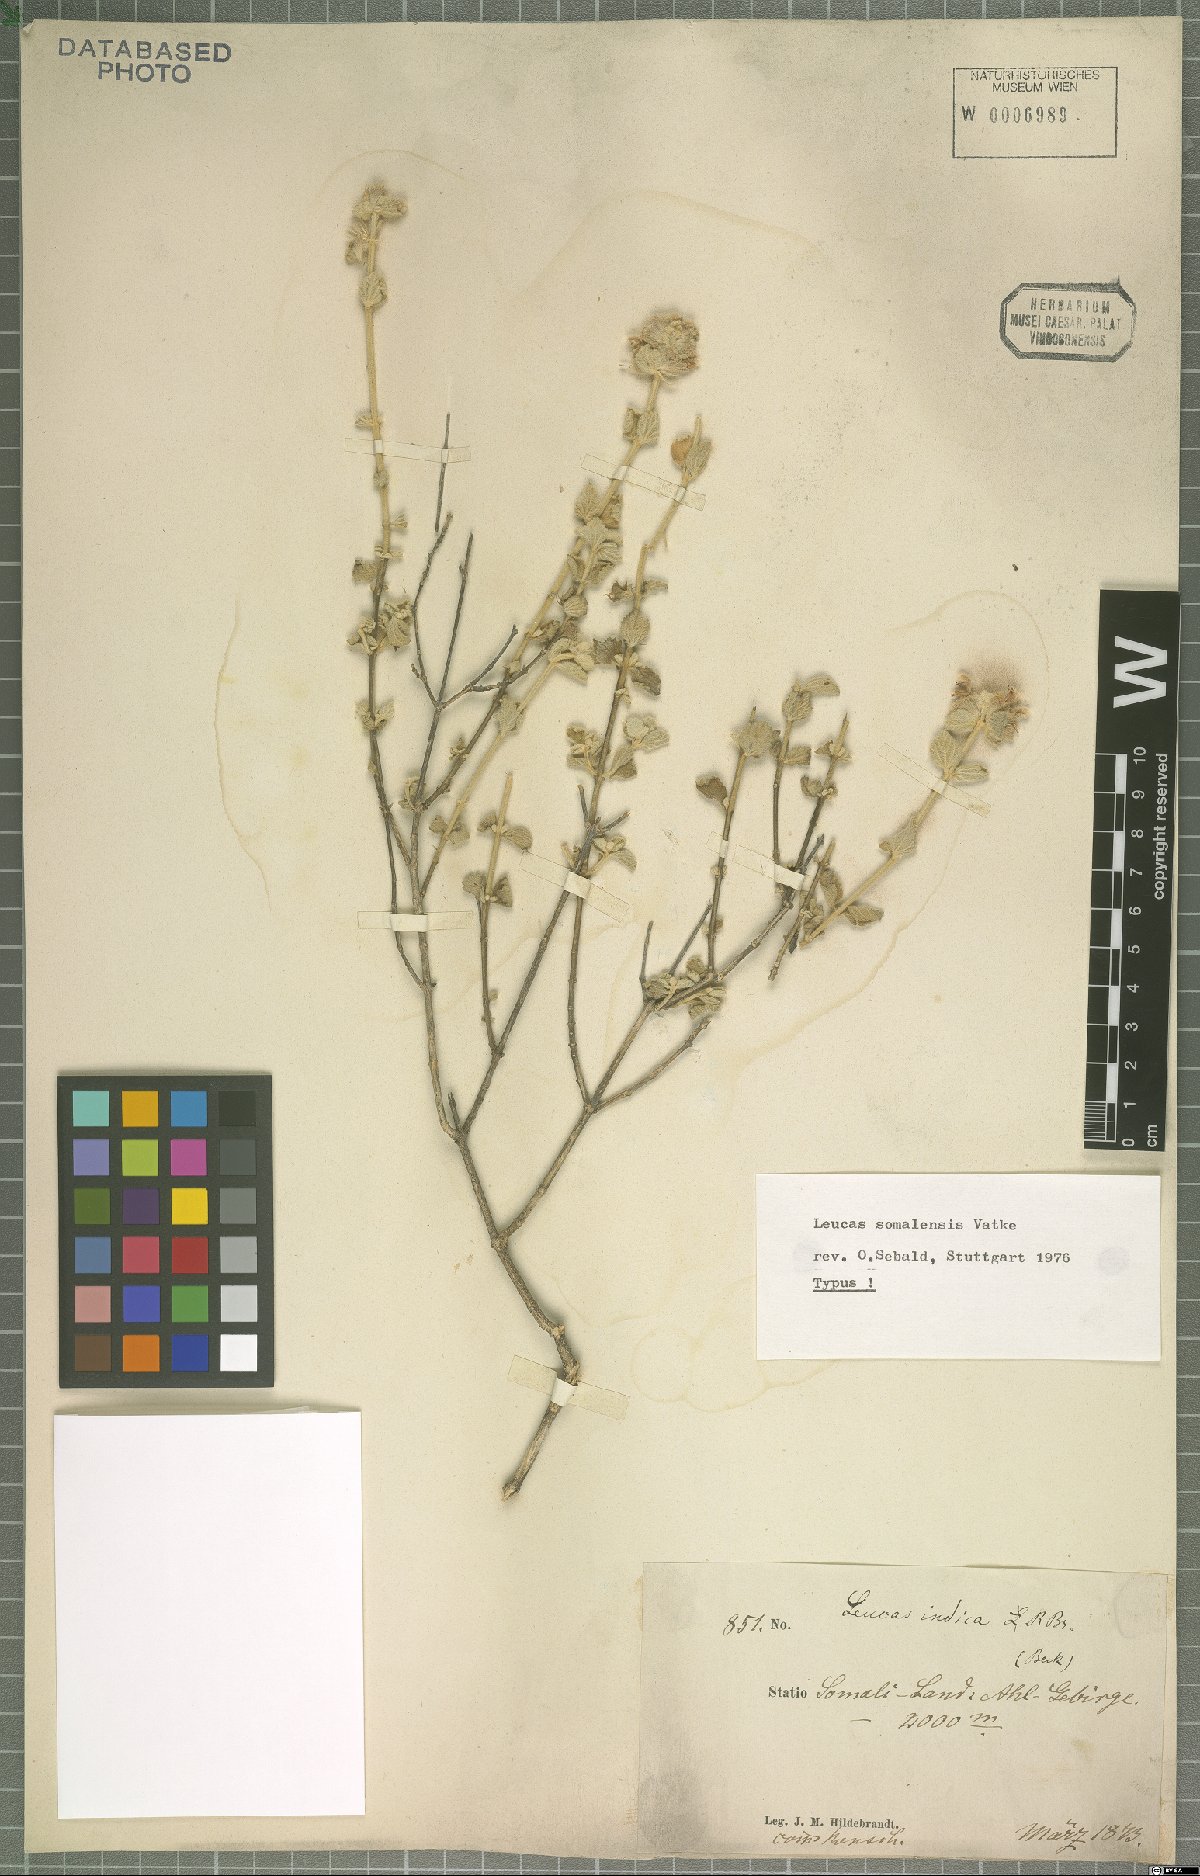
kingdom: Plantae
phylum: Tracheophyta
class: Magnoliopsida
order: Lamiales
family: Lamiaceae
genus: Leucas
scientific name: Leucas somalensis
